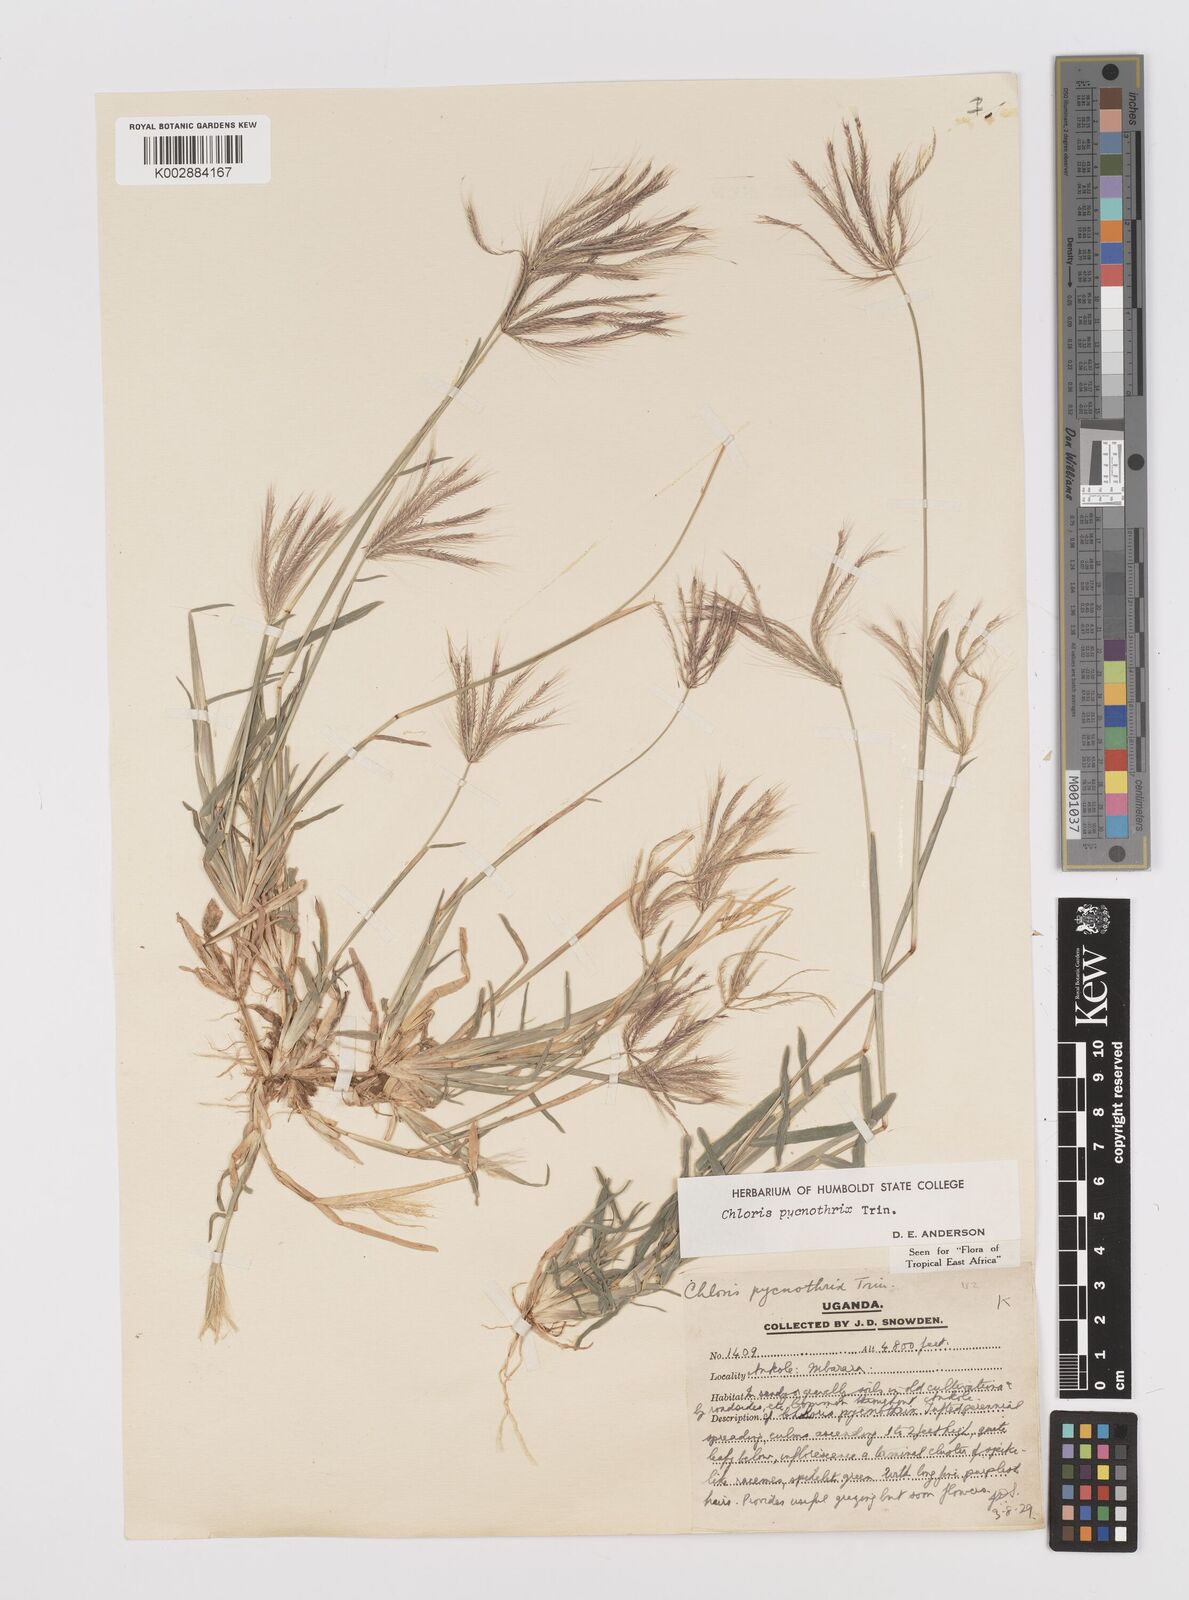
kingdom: Plantae
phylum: Tracheophyta
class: Liliopsida
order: Poales
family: Poaceae
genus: Chloris
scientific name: Chloris pycnothrix
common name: Spiderweb chloris
